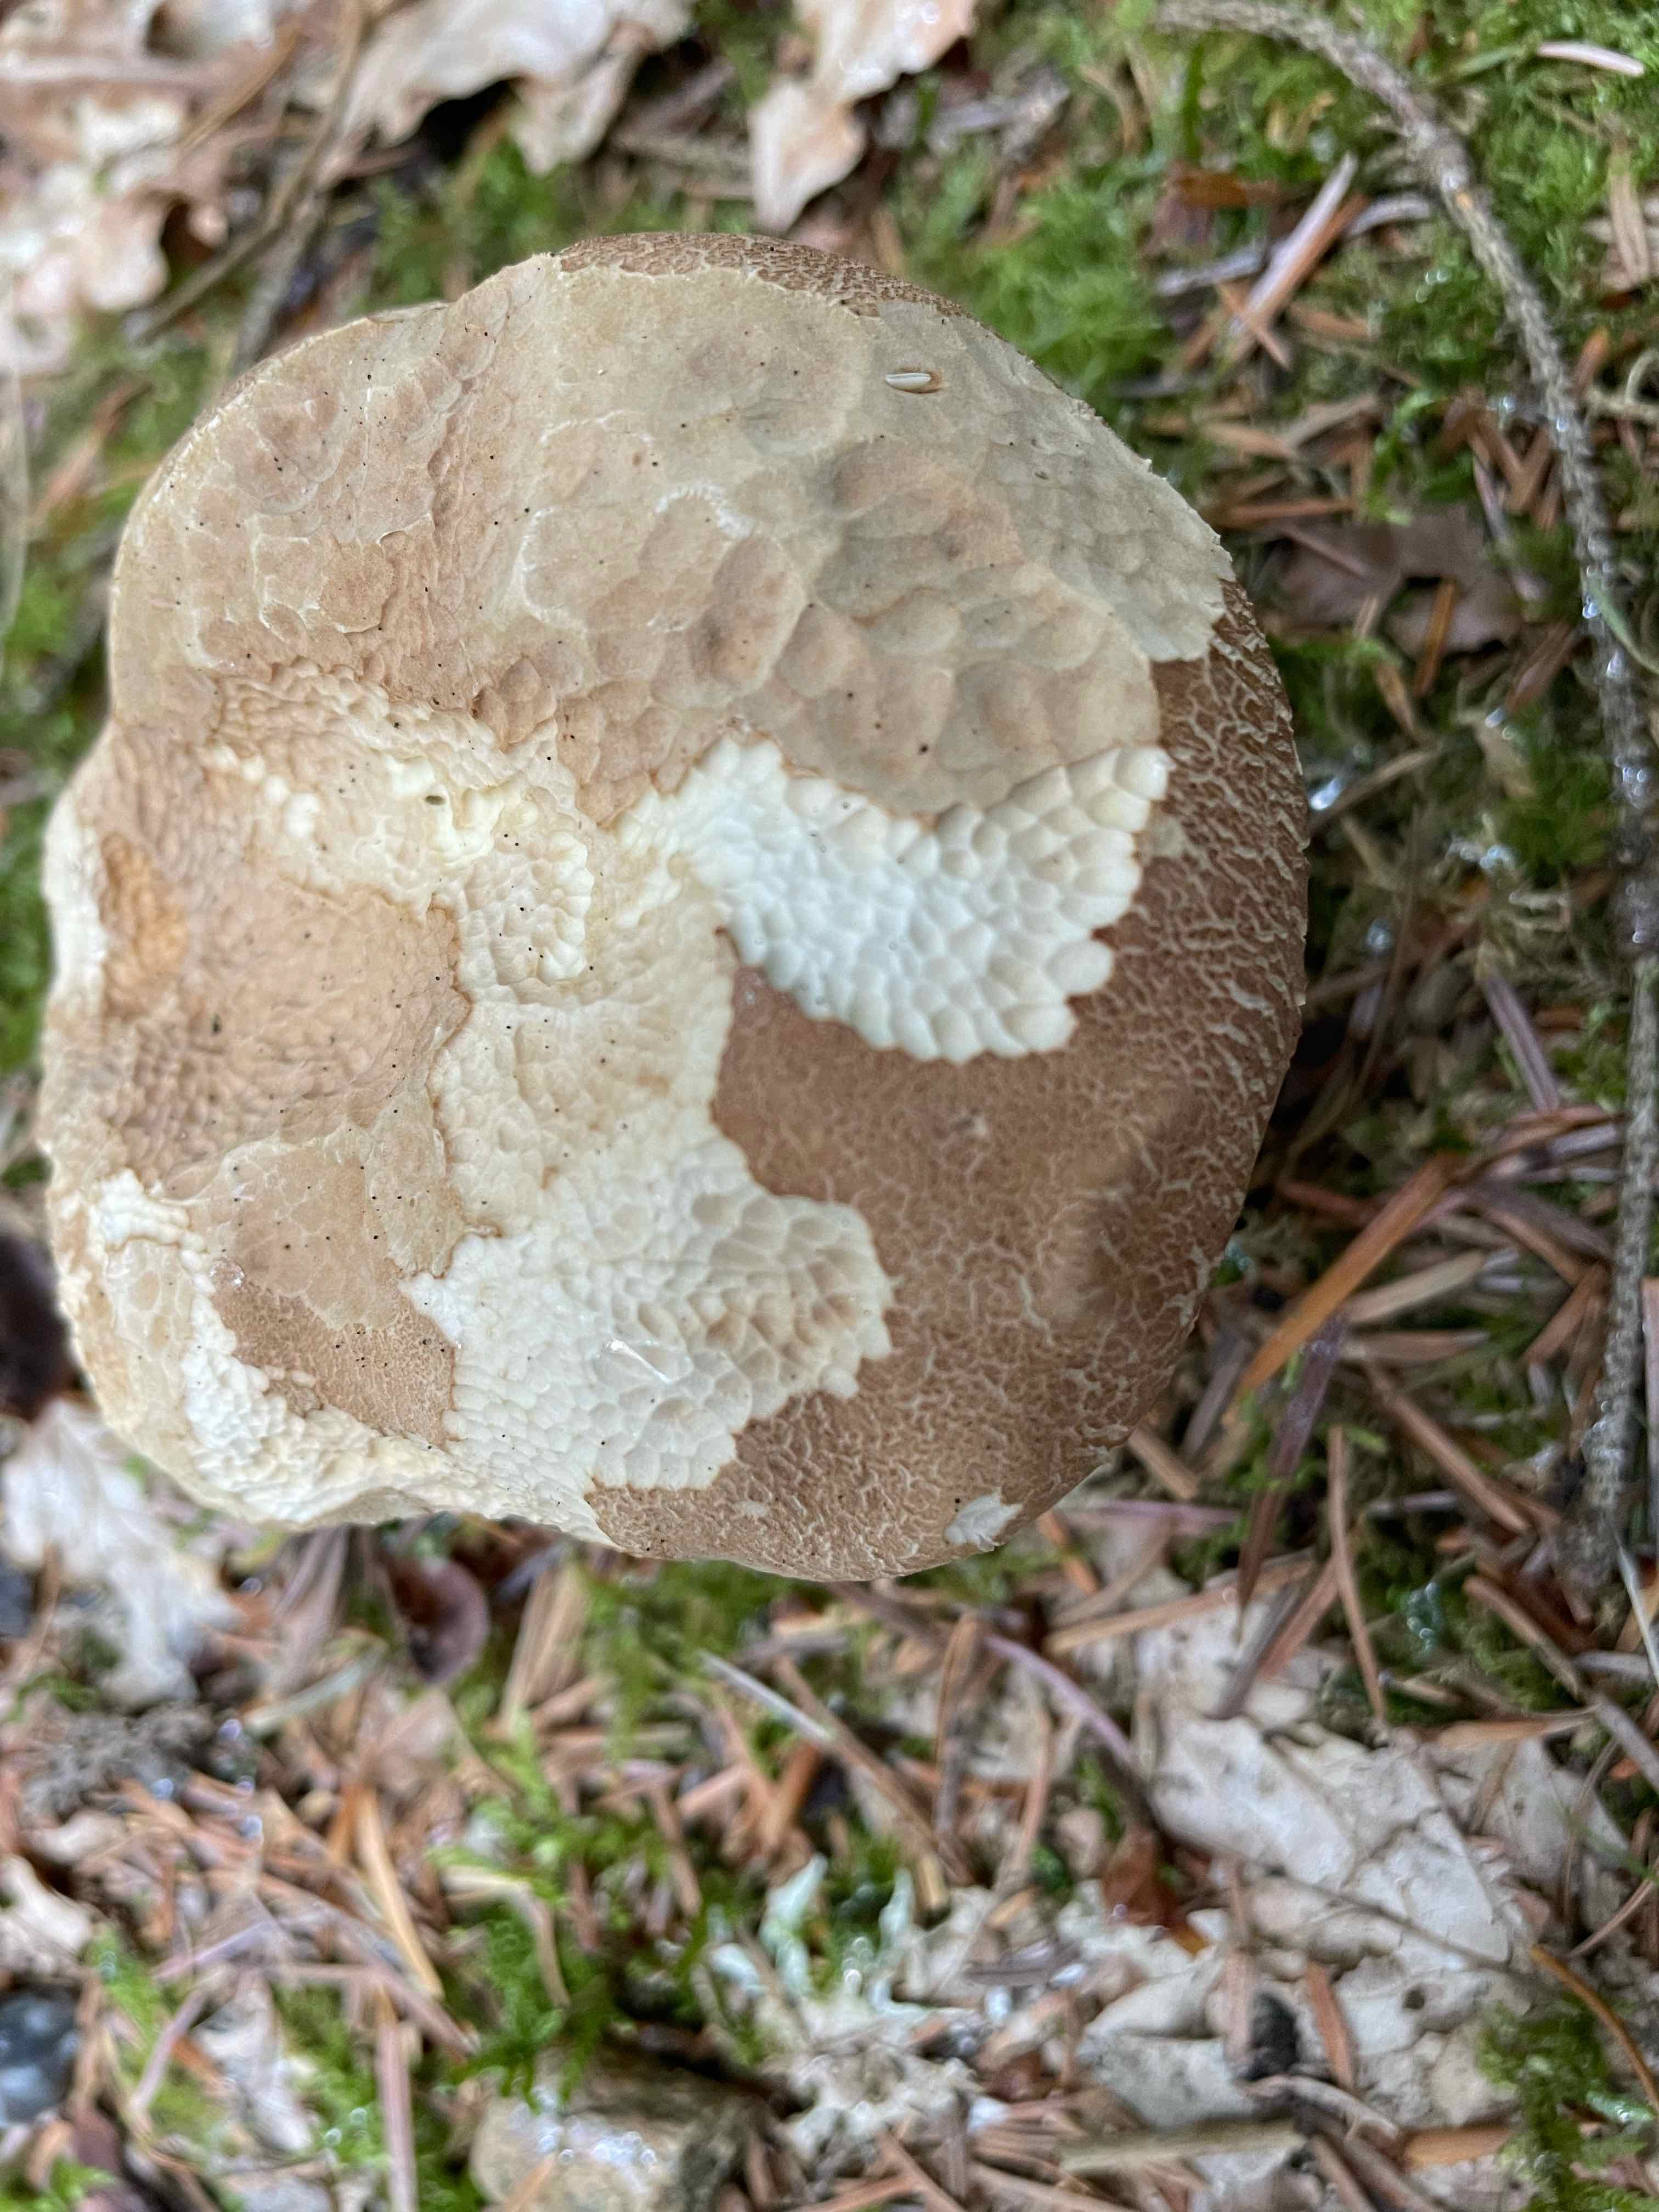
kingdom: Fungi
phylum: Basidiomycota
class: Agaricomycetes
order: Boletales
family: Boletaceae
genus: Boletus
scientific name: Boletus reticulatus
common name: sommer-rørhat
